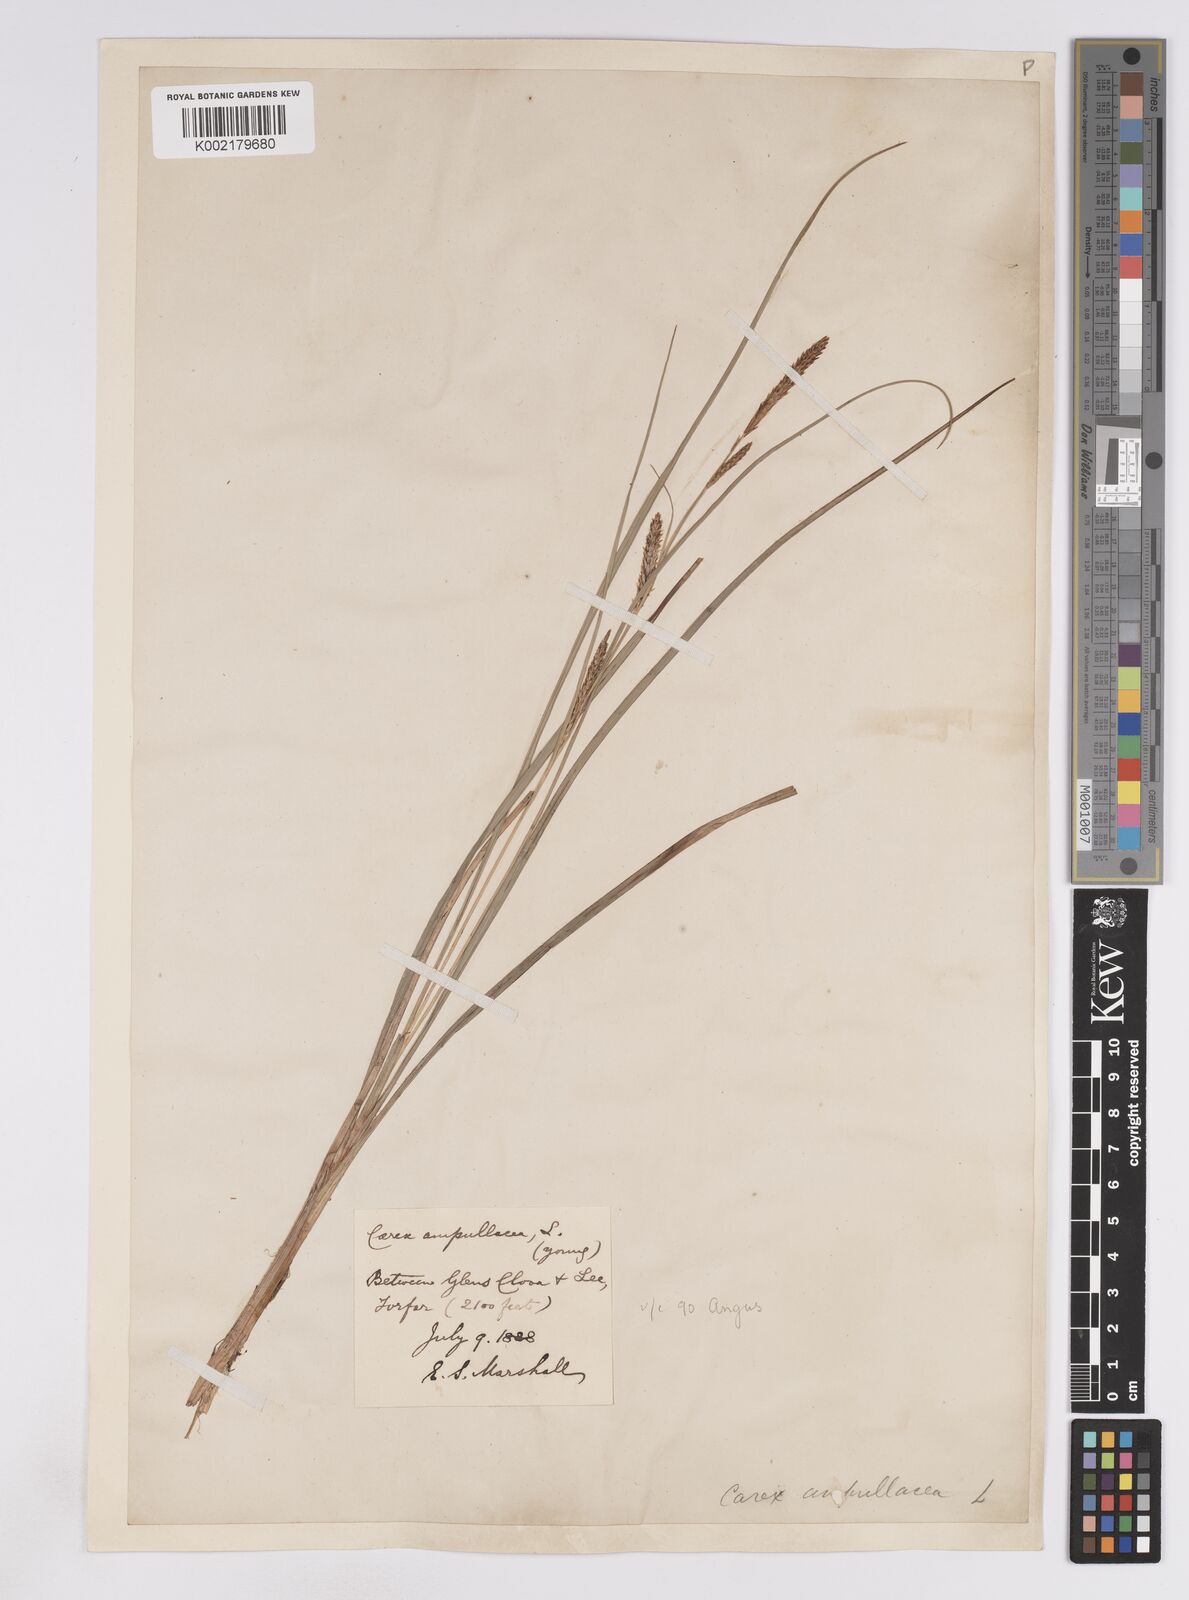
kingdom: Plantae
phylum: Tracheophyta
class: Liliopsida
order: Poales
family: Cyperaceae
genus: Carex
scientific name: Carex rostrata
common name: Bottle sedge
